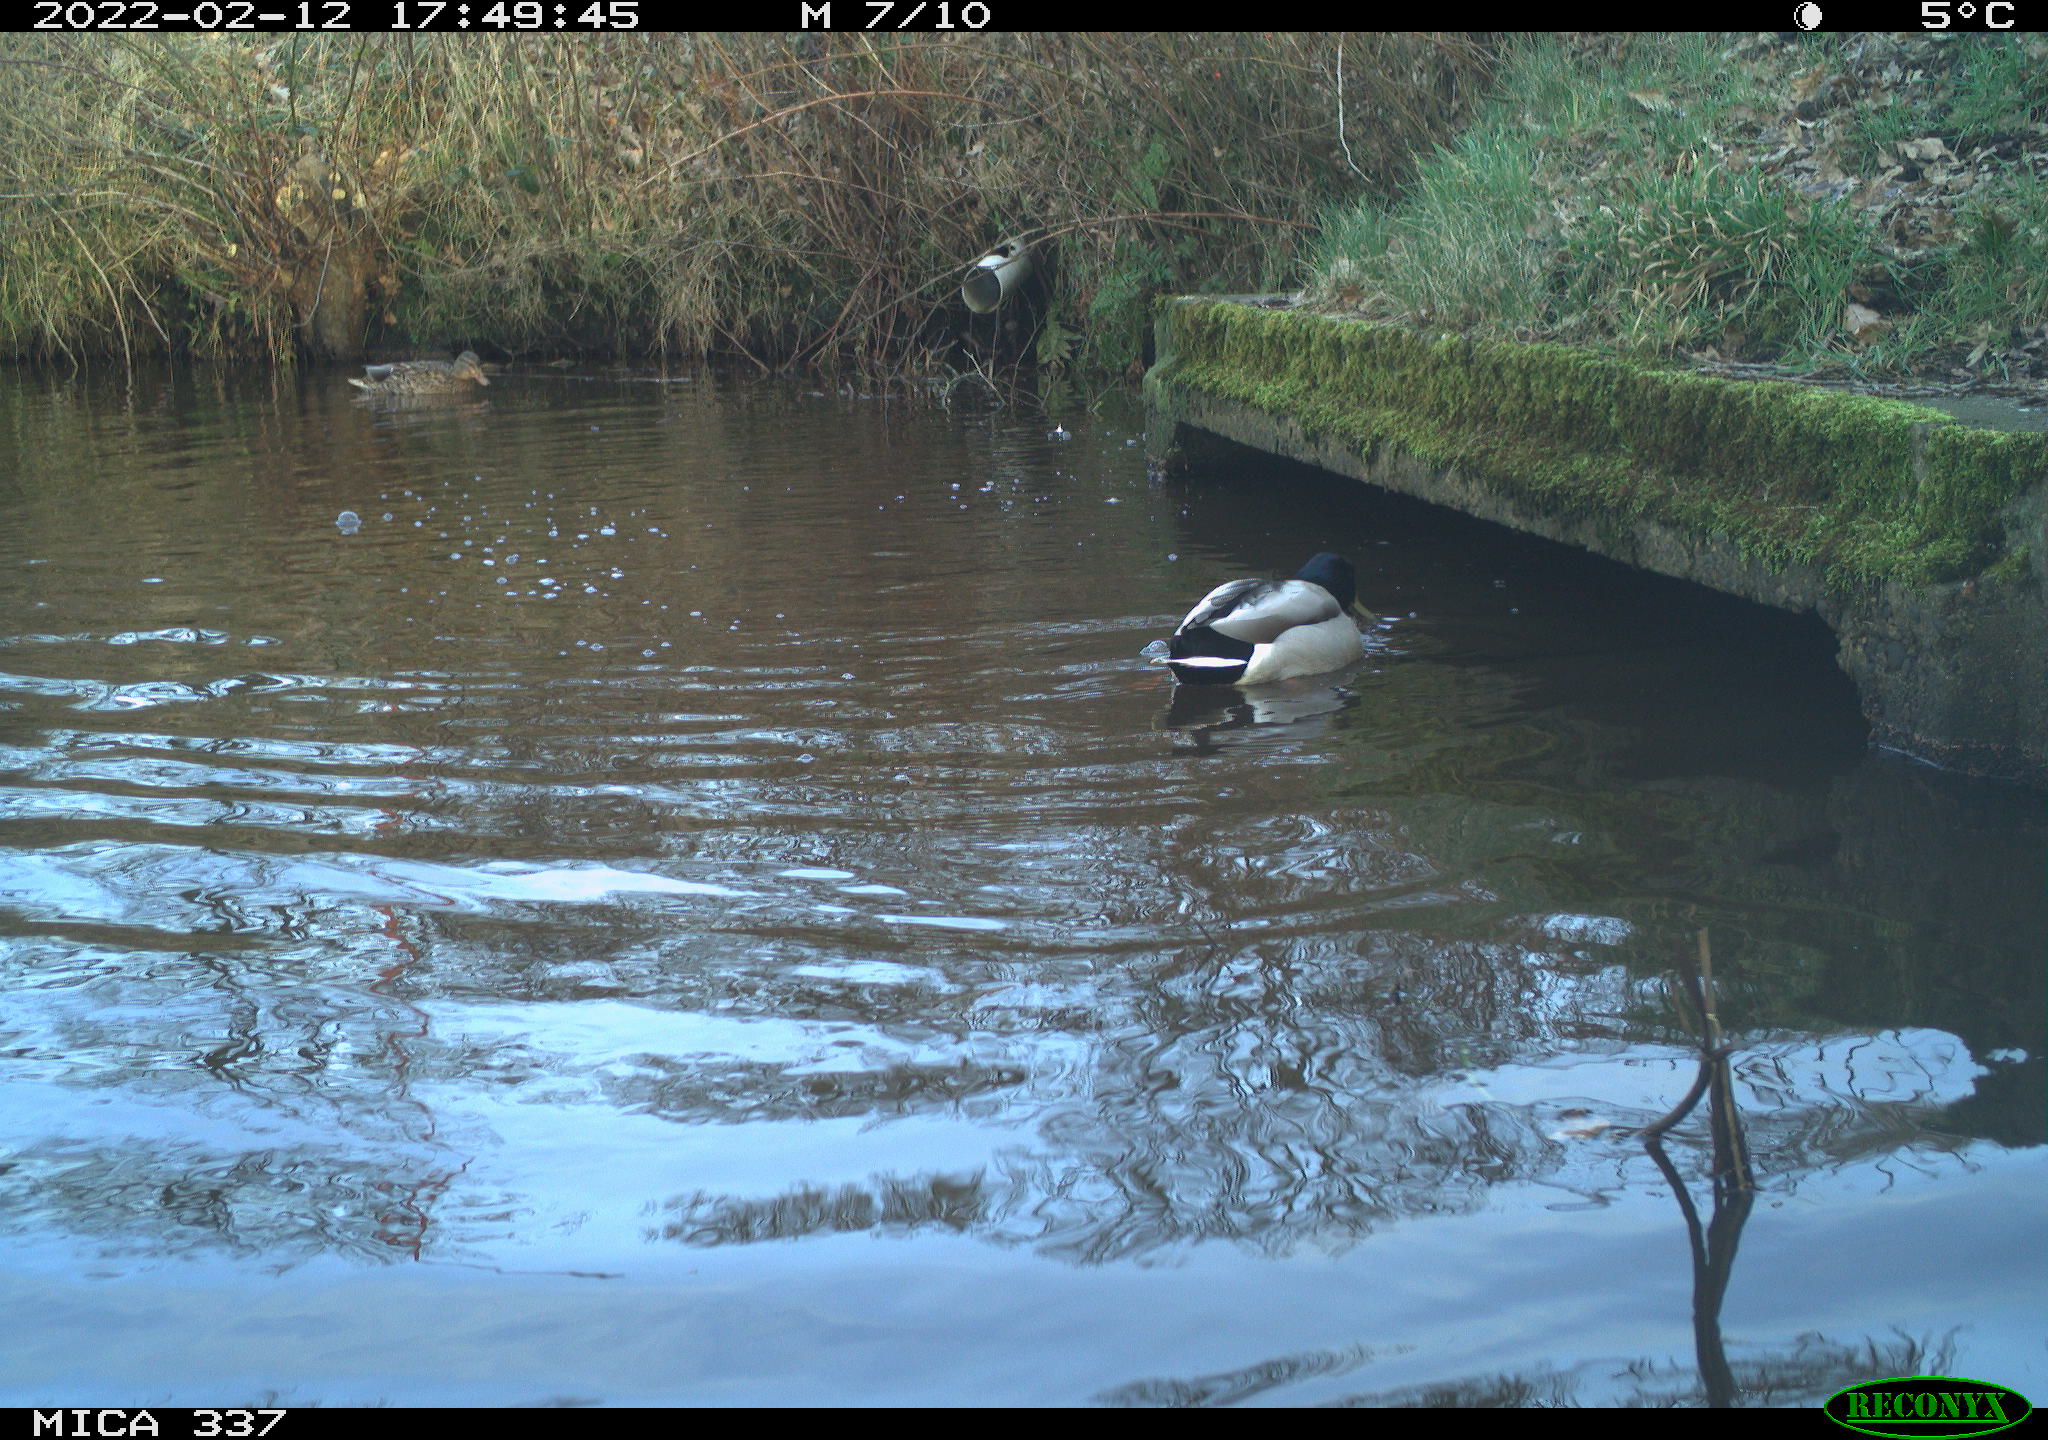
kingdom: Animalia
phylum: Chordata
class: Aves
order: Anseriformes
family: Anatidae
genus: Anas
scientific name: Anas platyrhynchos
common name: Mallard
